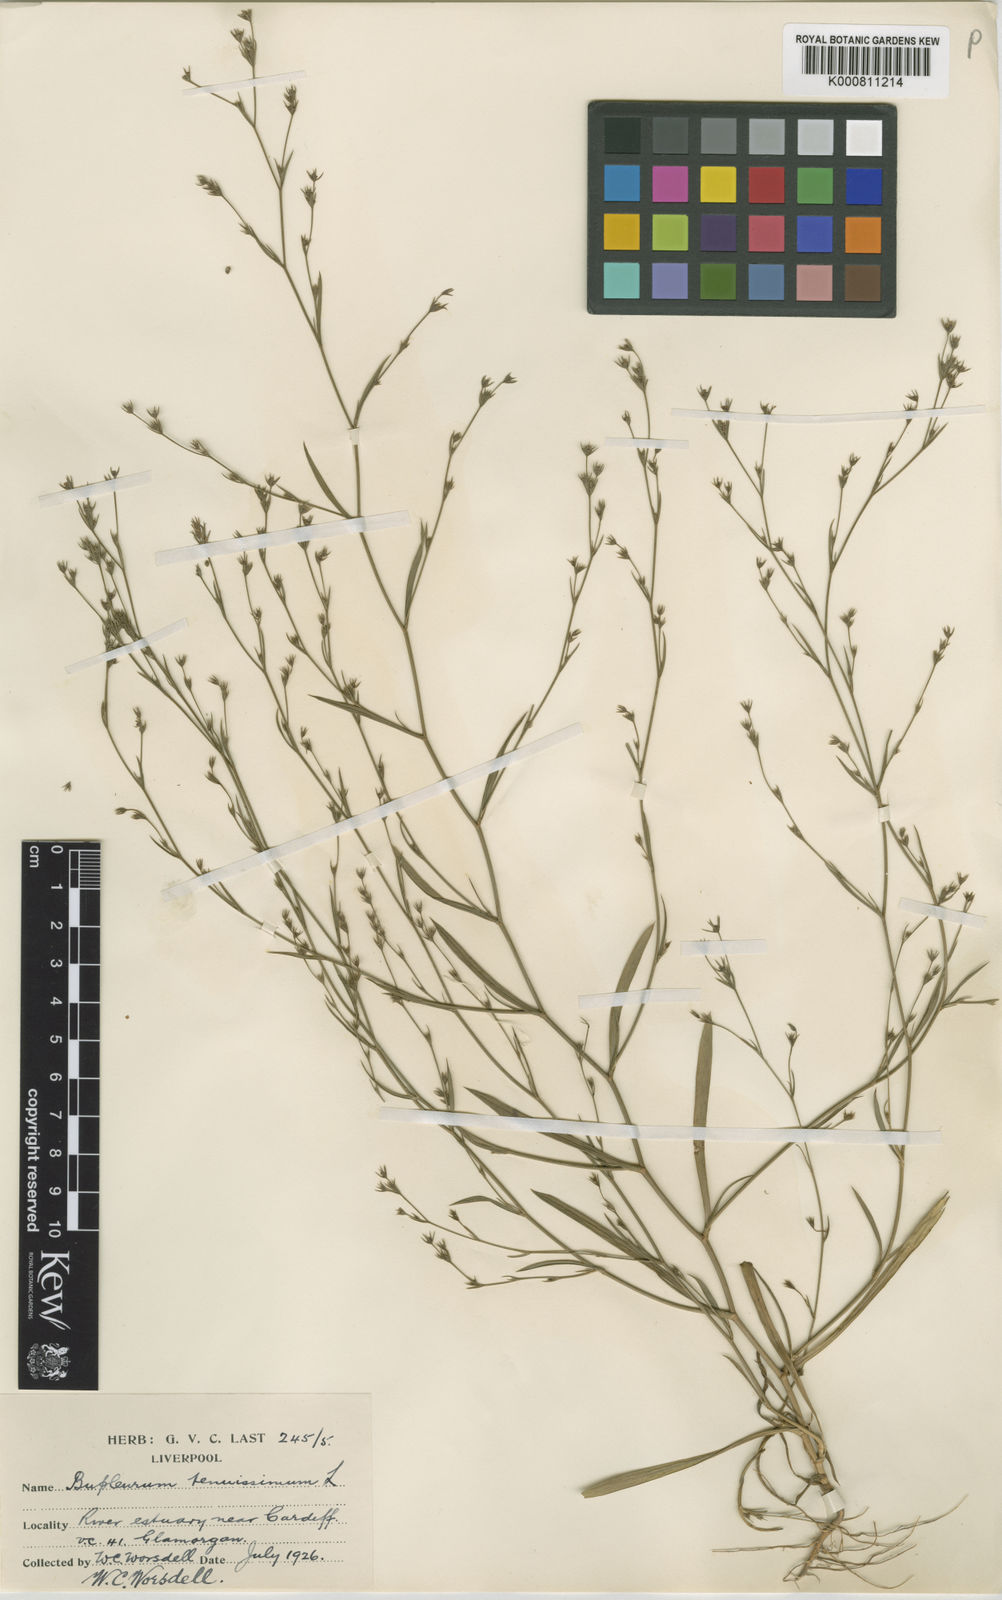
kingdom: Plantae
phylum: Tracheophyta
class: Magnoliopsida
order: Apiales
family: Apiaceae
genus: Bupleurum
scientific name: Bupleurum tenuissimum
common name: Slender hare's-ear
